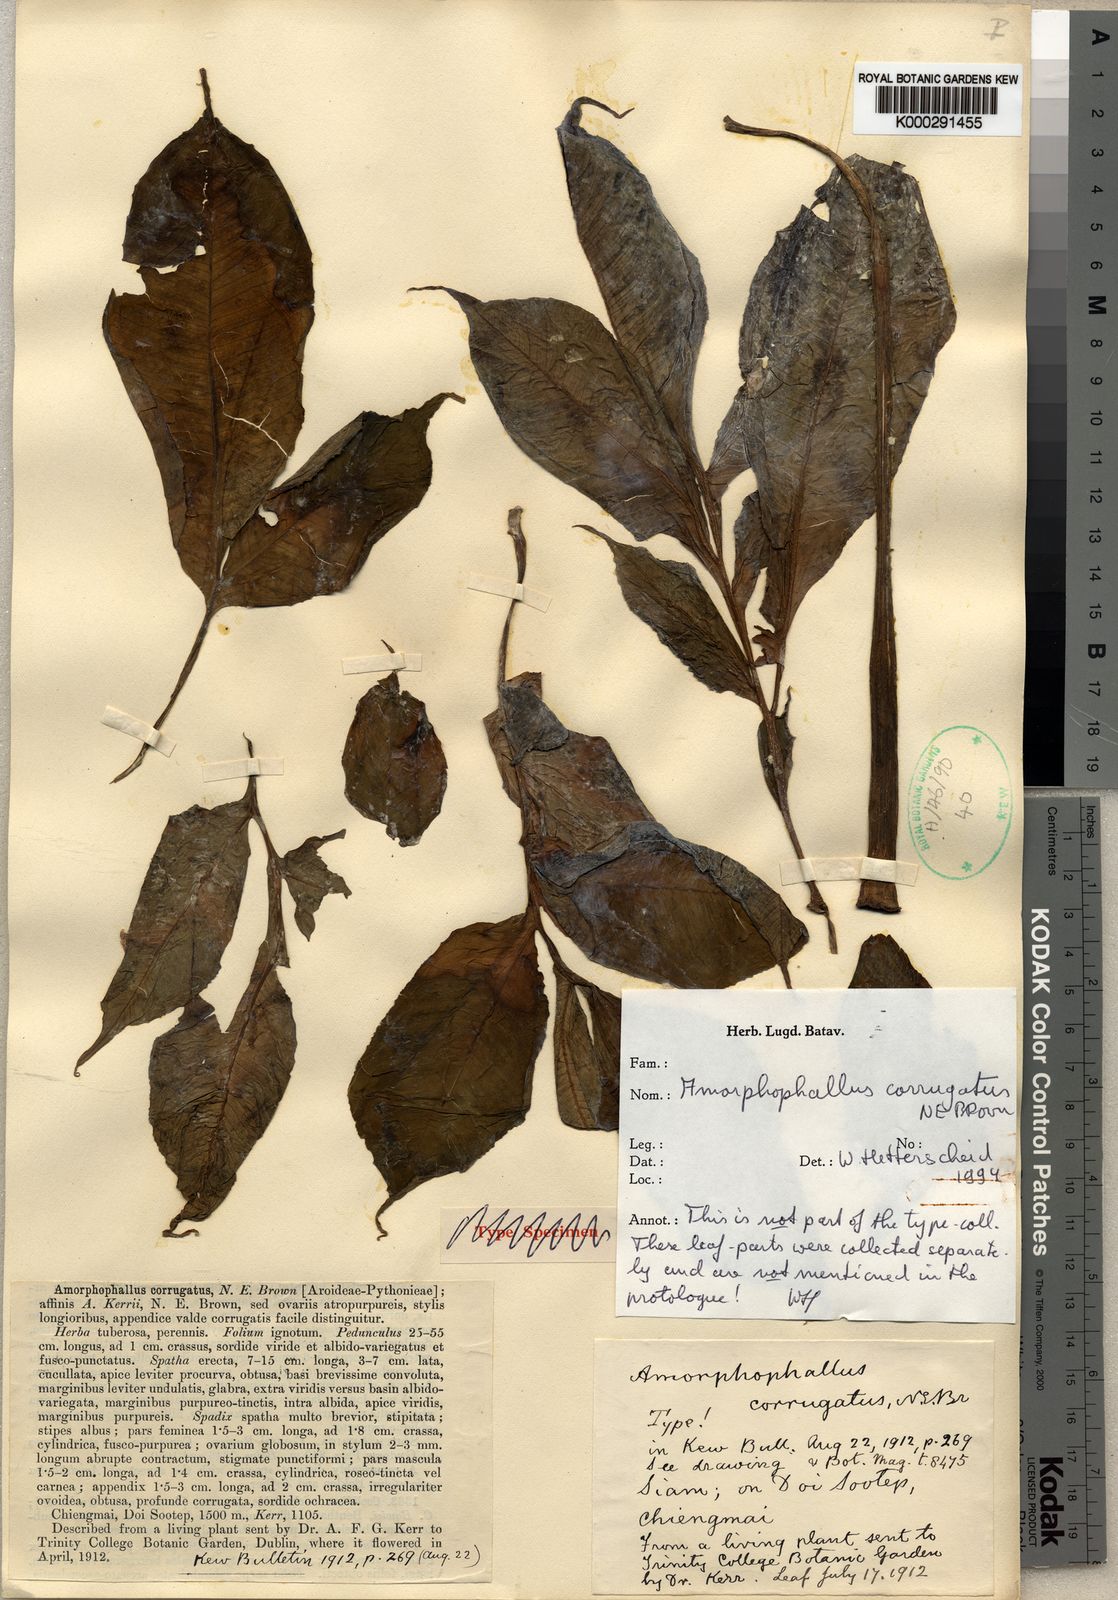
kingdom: Plantae
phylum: Tracheophyta
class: Liliopsida
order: Alismatales
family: Araceae
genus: Amorphophallus
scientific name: Amorphophallus corrugatus
